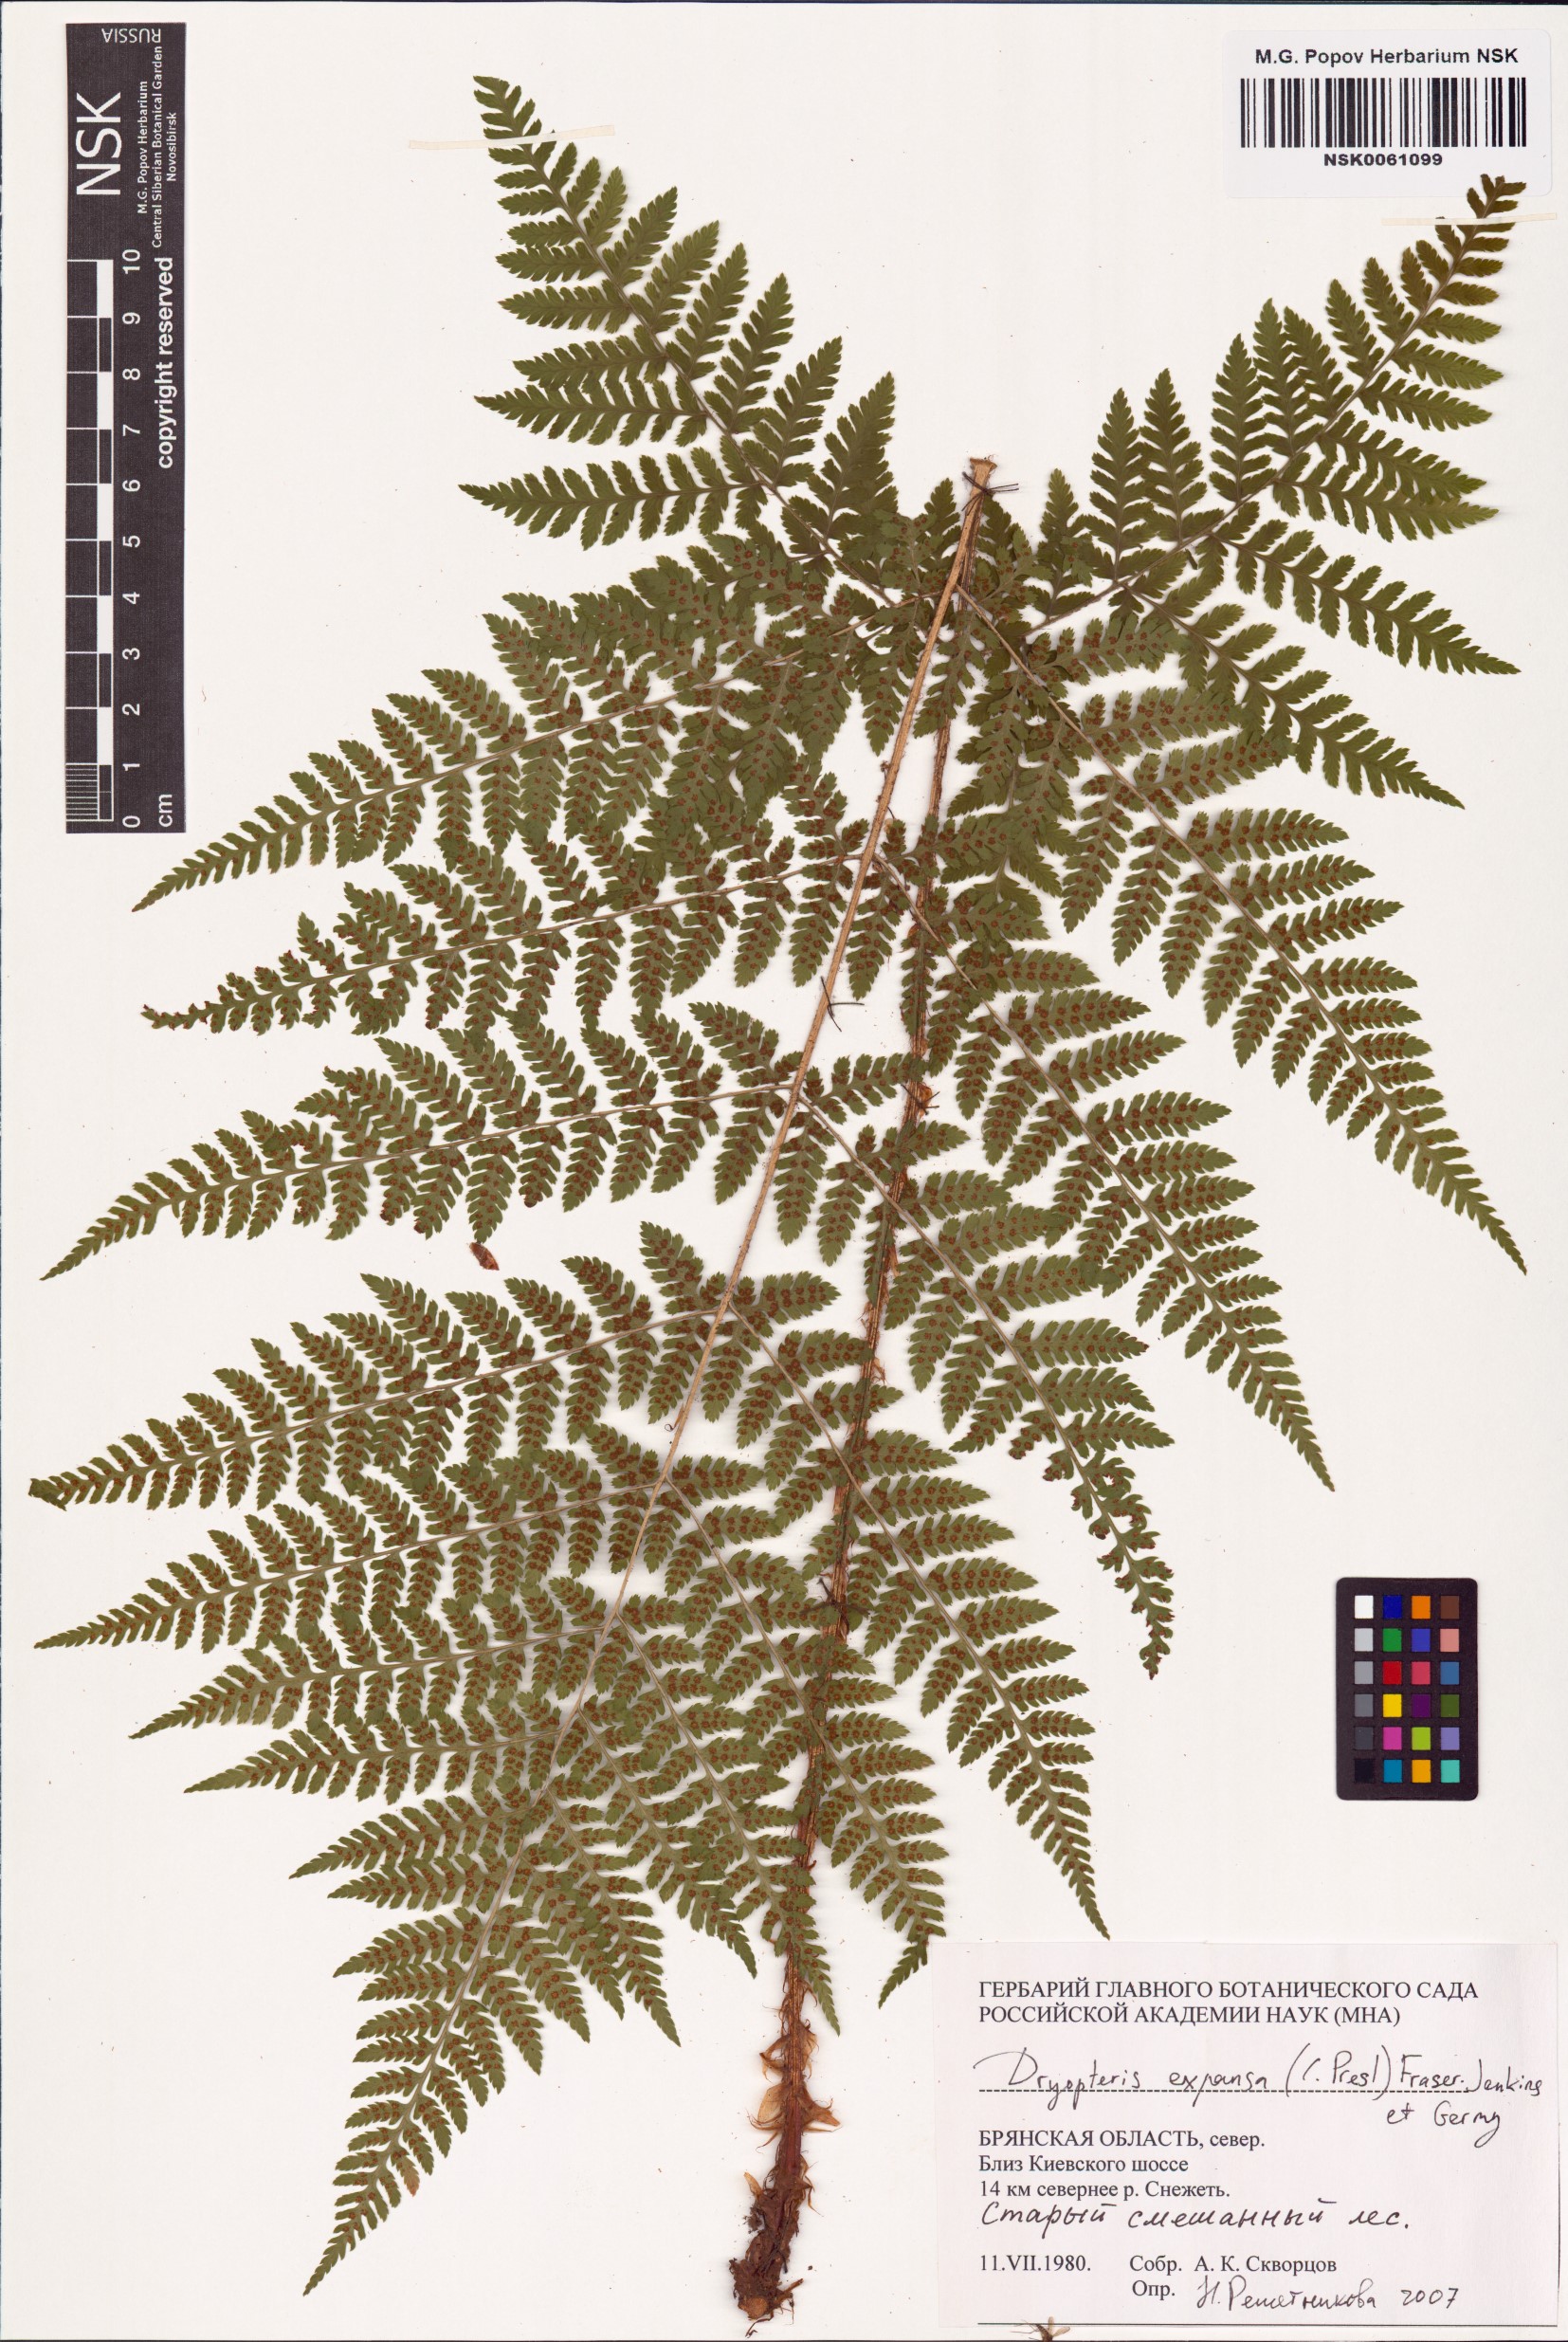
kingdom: Plantae
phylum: Tracheophyta
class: Polypodiopsida
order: Polypodiales
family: Dryopteridaceae
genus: Dryopteris
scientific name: Dryopteris expansa
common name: Northern buckler fern
